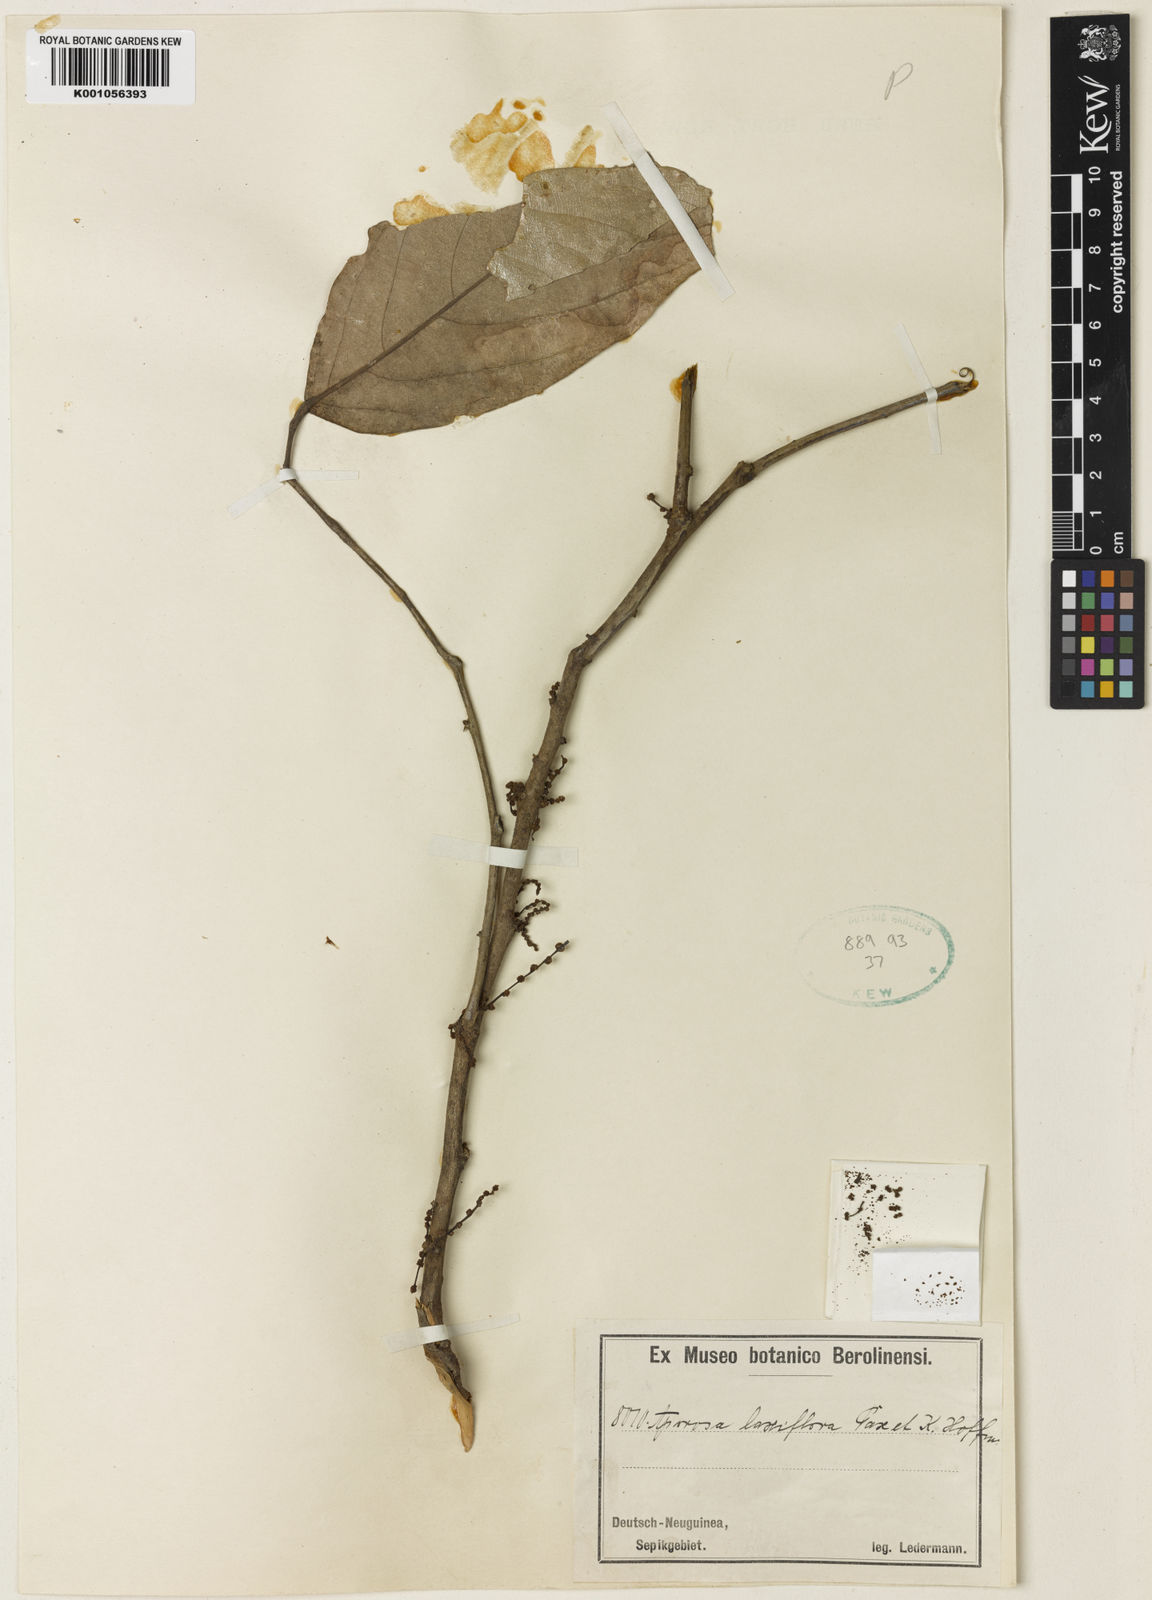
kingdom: Plantae
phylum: Tracheophyta
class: Magnoliopsida
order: Malpighiales
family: Phyllanthaceae
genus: Aporosa
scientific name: Aporosa laxiflora
